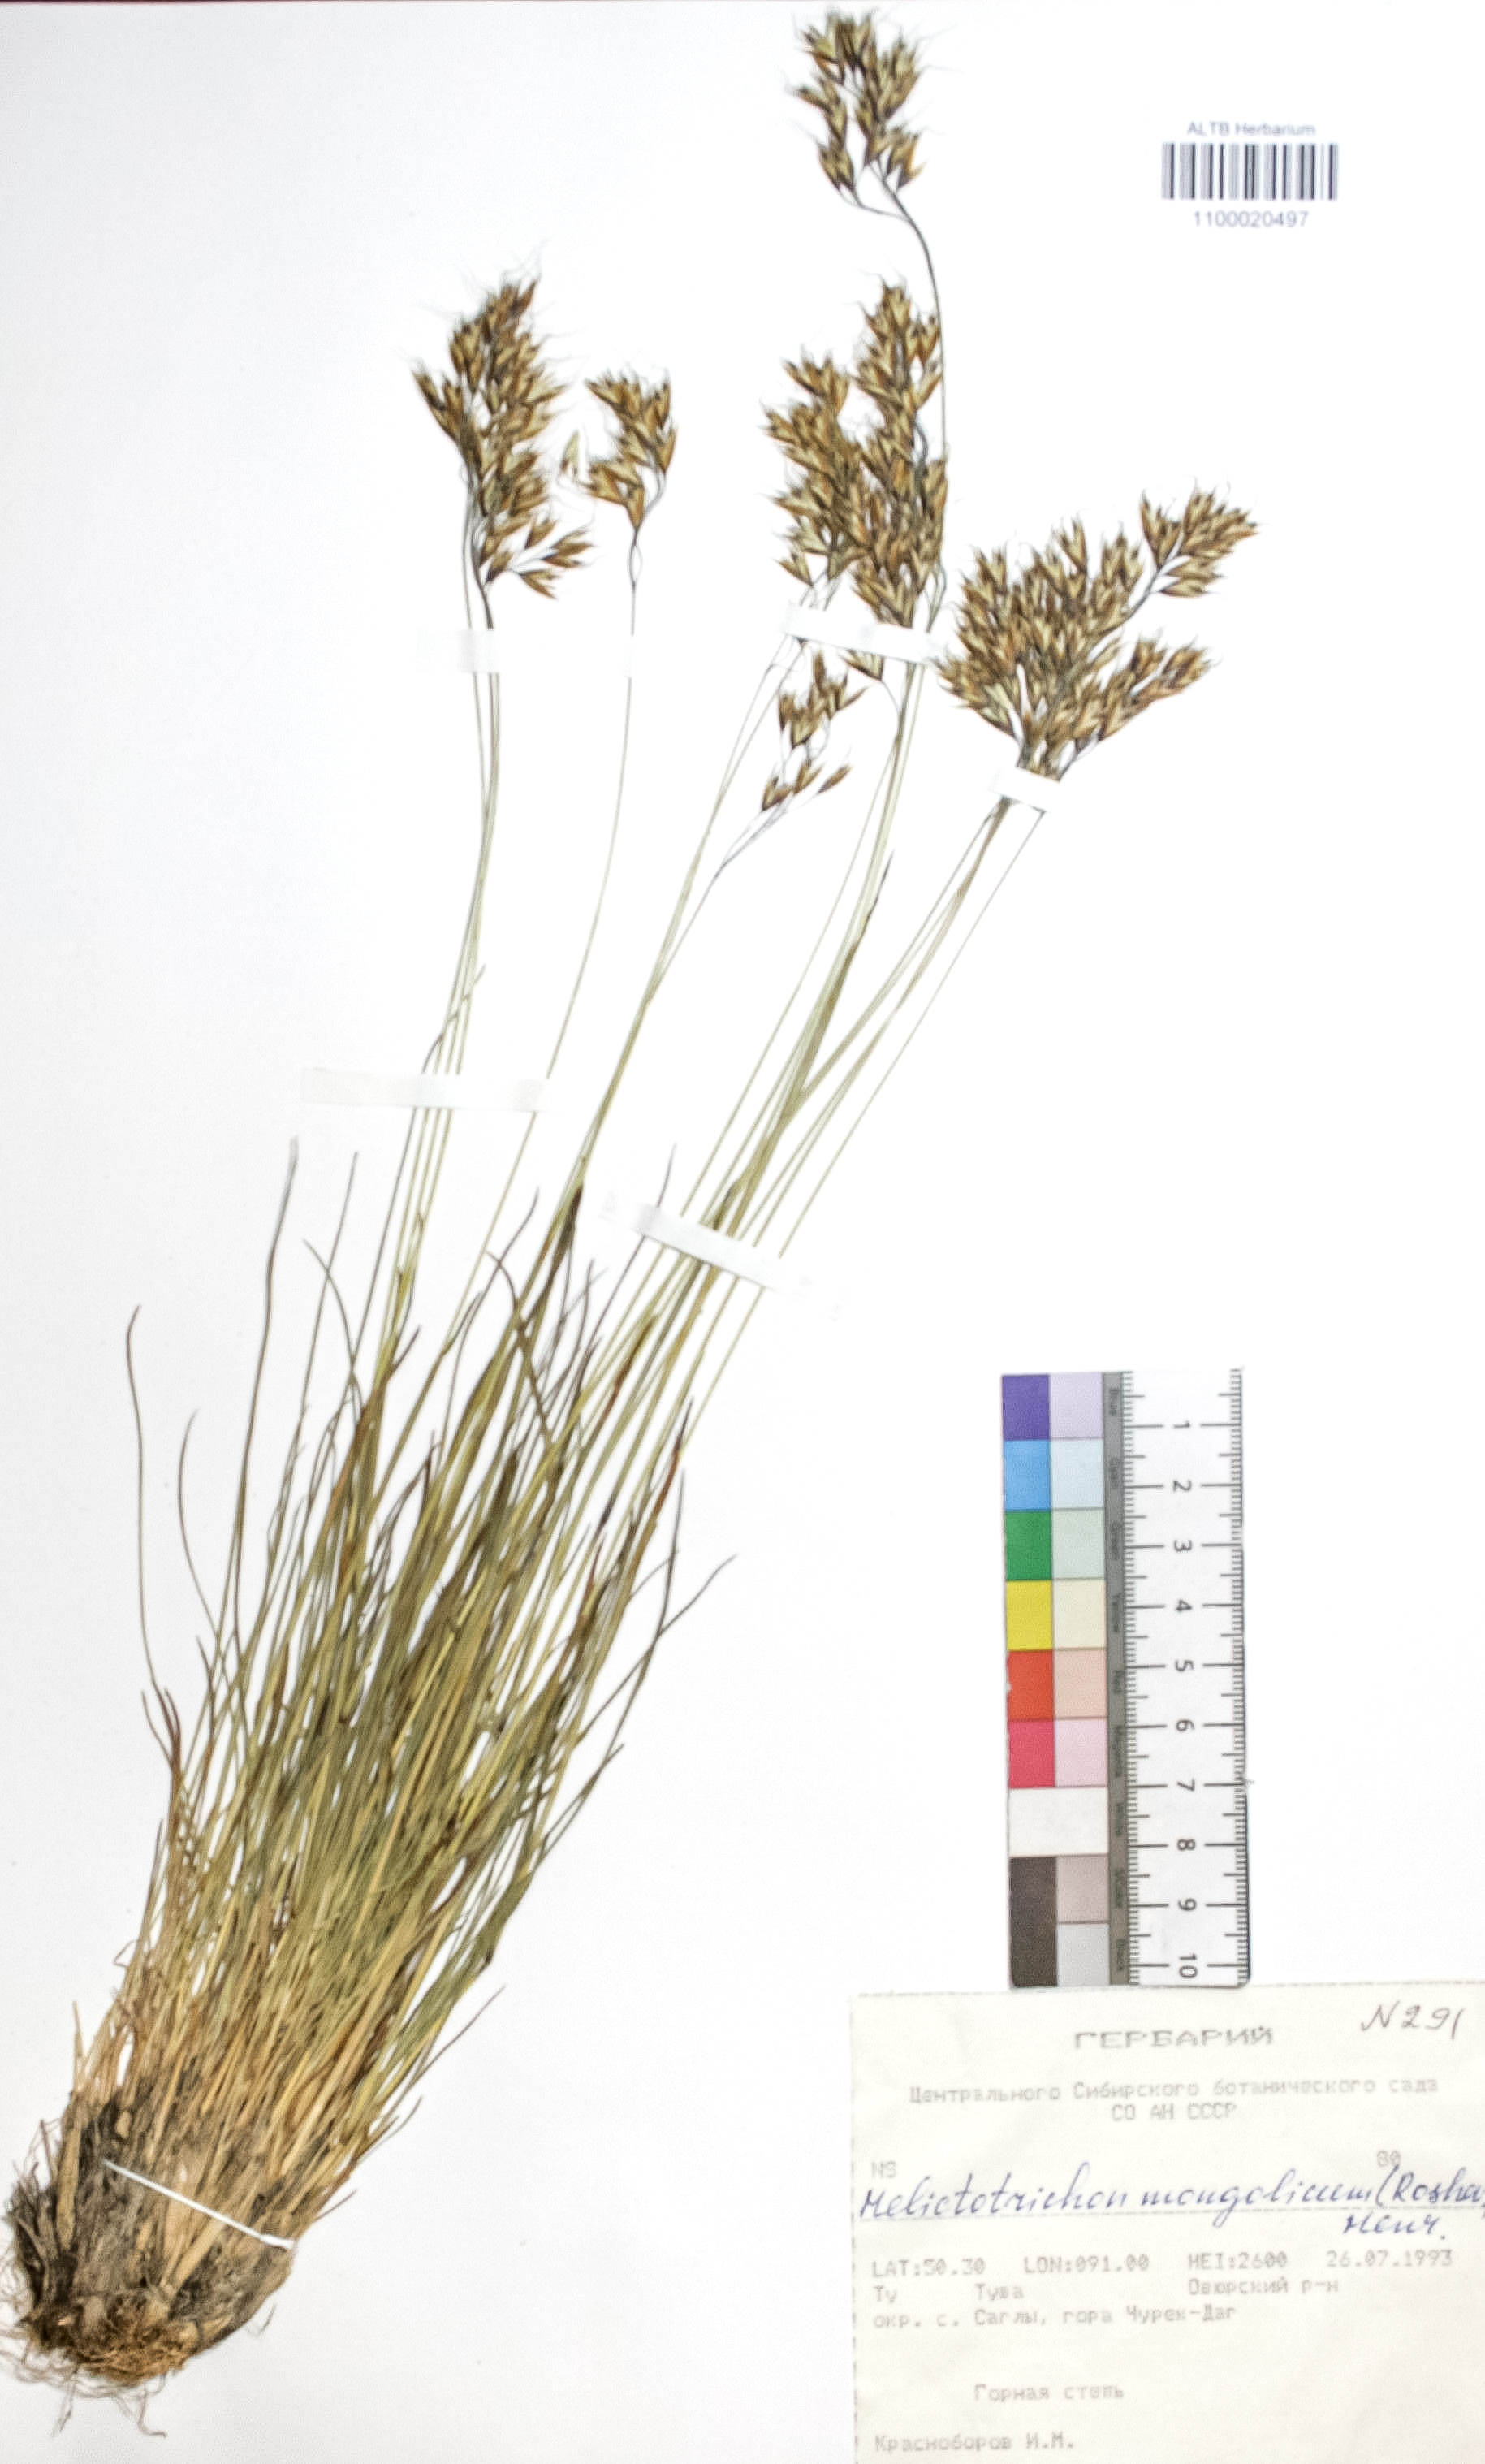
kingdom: Plantae
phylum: Tracheophyta
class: Liliopsida
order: Poales
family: Poaceae
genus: Helictotrichon
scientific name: Helictotrichon mongolicum
